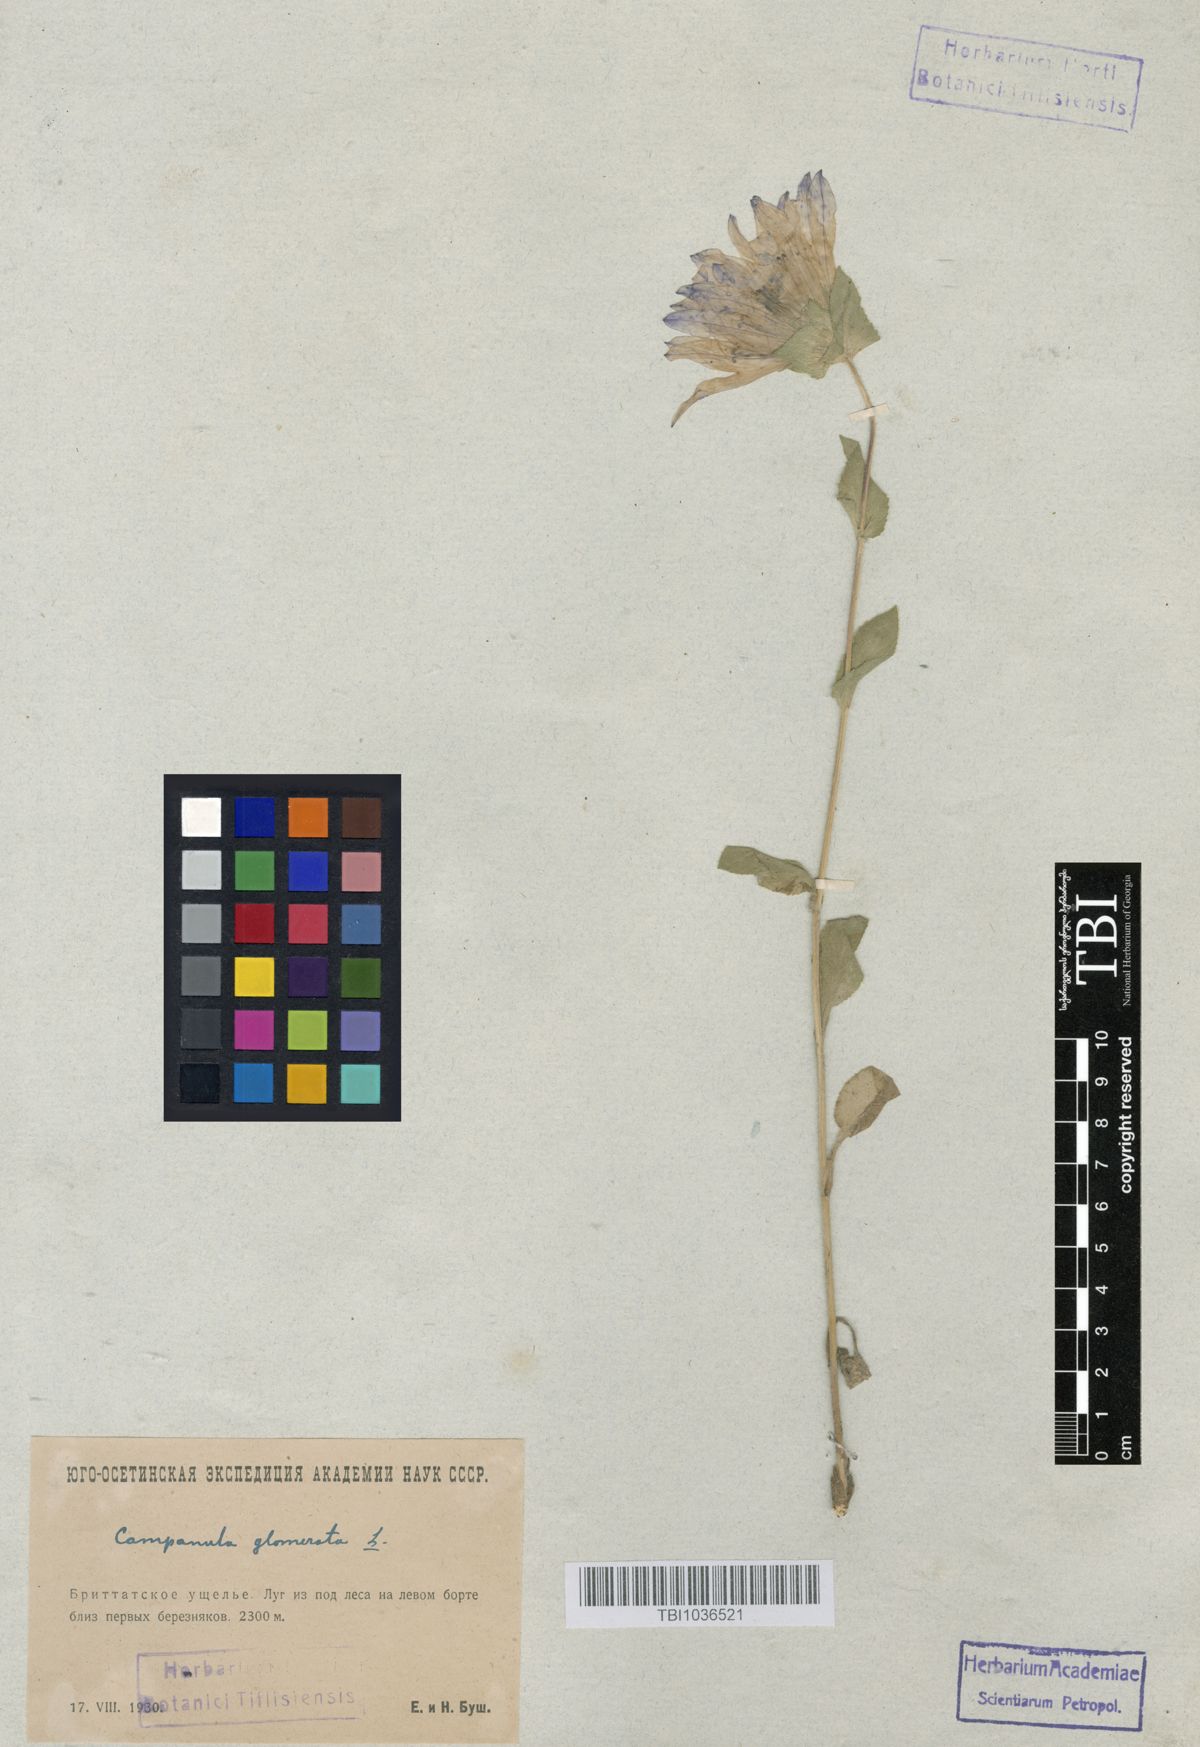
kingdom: Plantae
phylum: Tracheophyta
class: Magnoliopsida
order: Asterales
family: Campanulaceae
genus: Campanula
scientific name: Campanula glomerata
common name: Clustered bellflower
